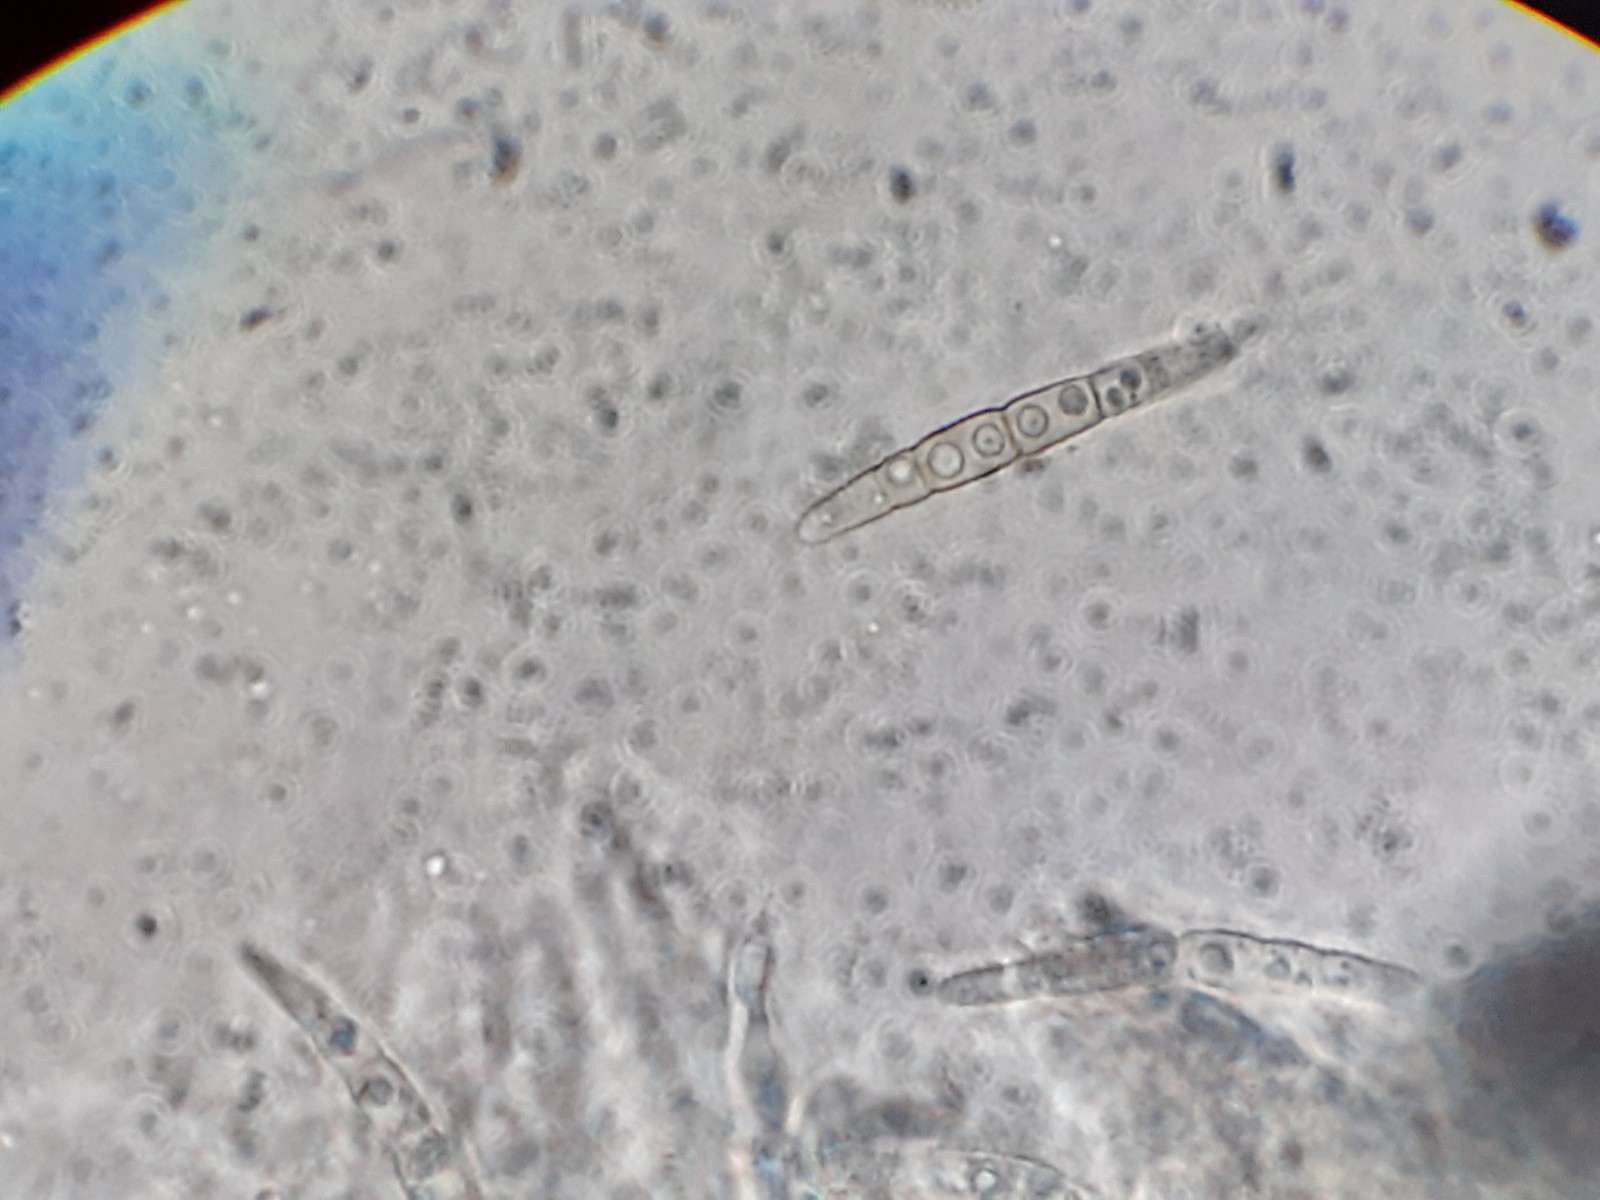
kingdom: Fungi
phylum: Ascomycota
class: Dothideomycetes
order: Pleosporales
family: Phaeosphaeriaceae
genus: Phaeosphaeria
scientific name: Phaeosphaeria sowerbyi
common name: kål-kulkegle
